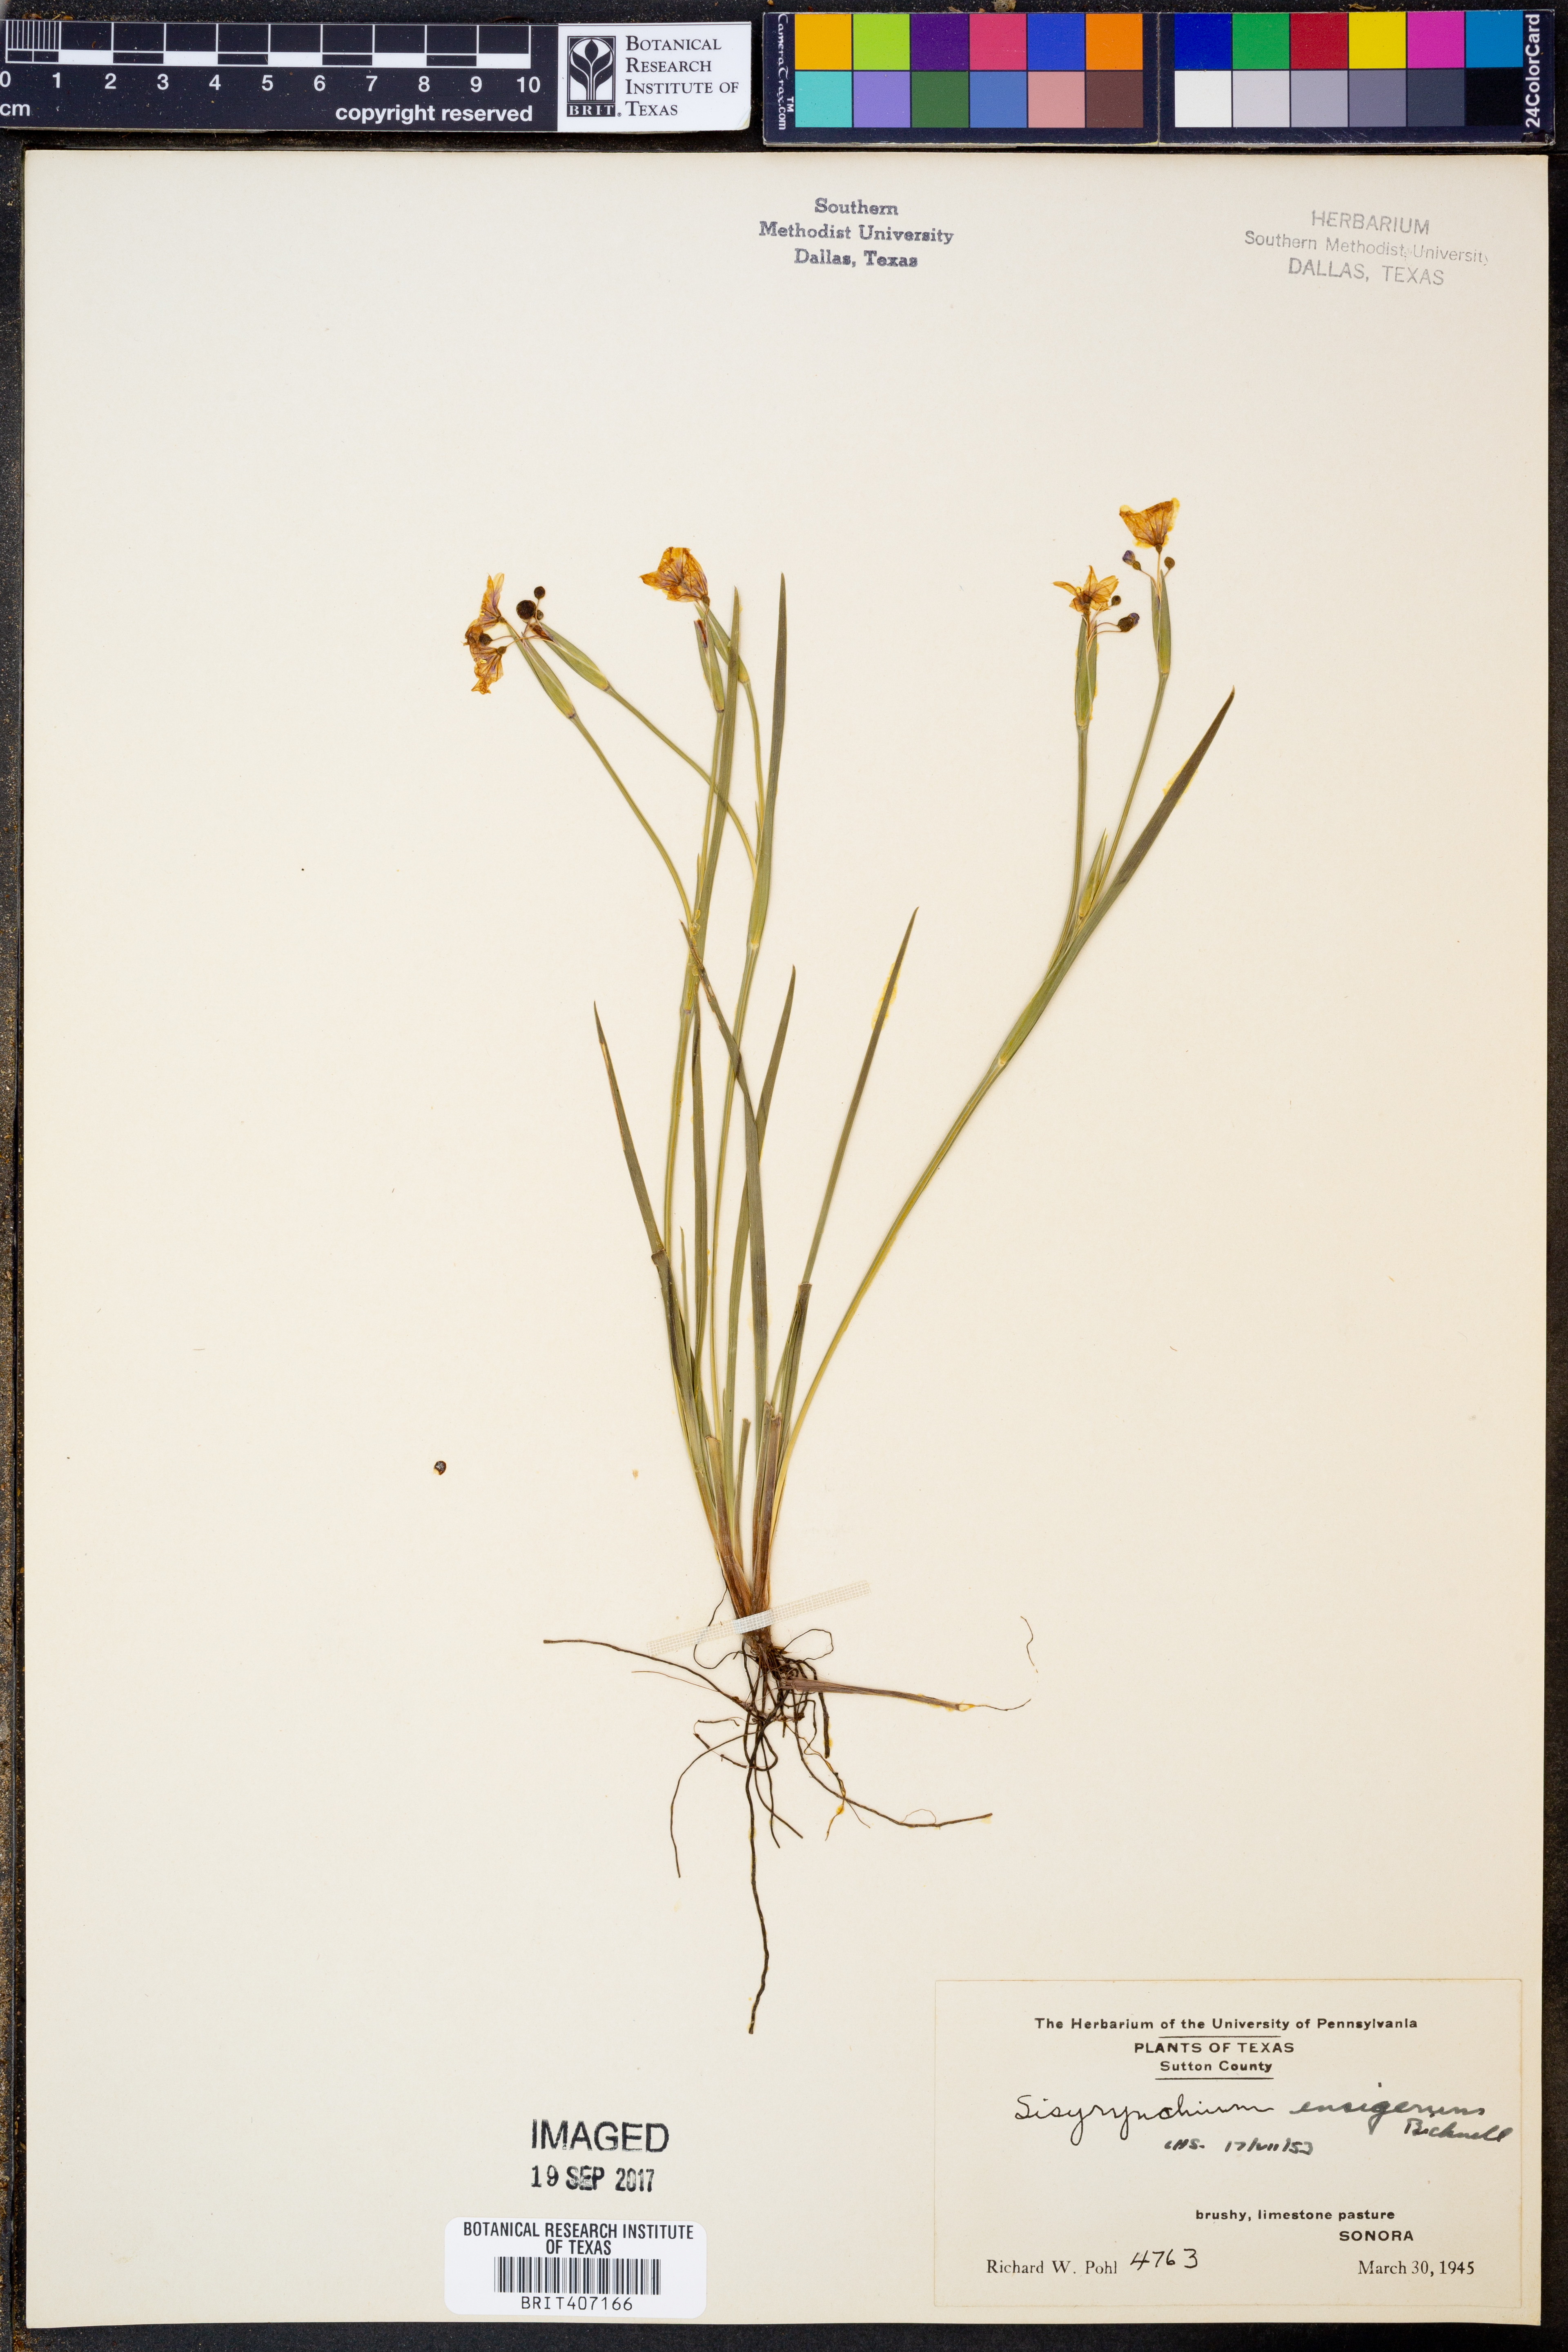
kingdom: Plantae
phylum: Tracheophyta
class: Liliopsida
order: Asparagales
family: Iridaceae
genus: Sisyrinchium
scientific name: Sisyrinchium ensigerum
